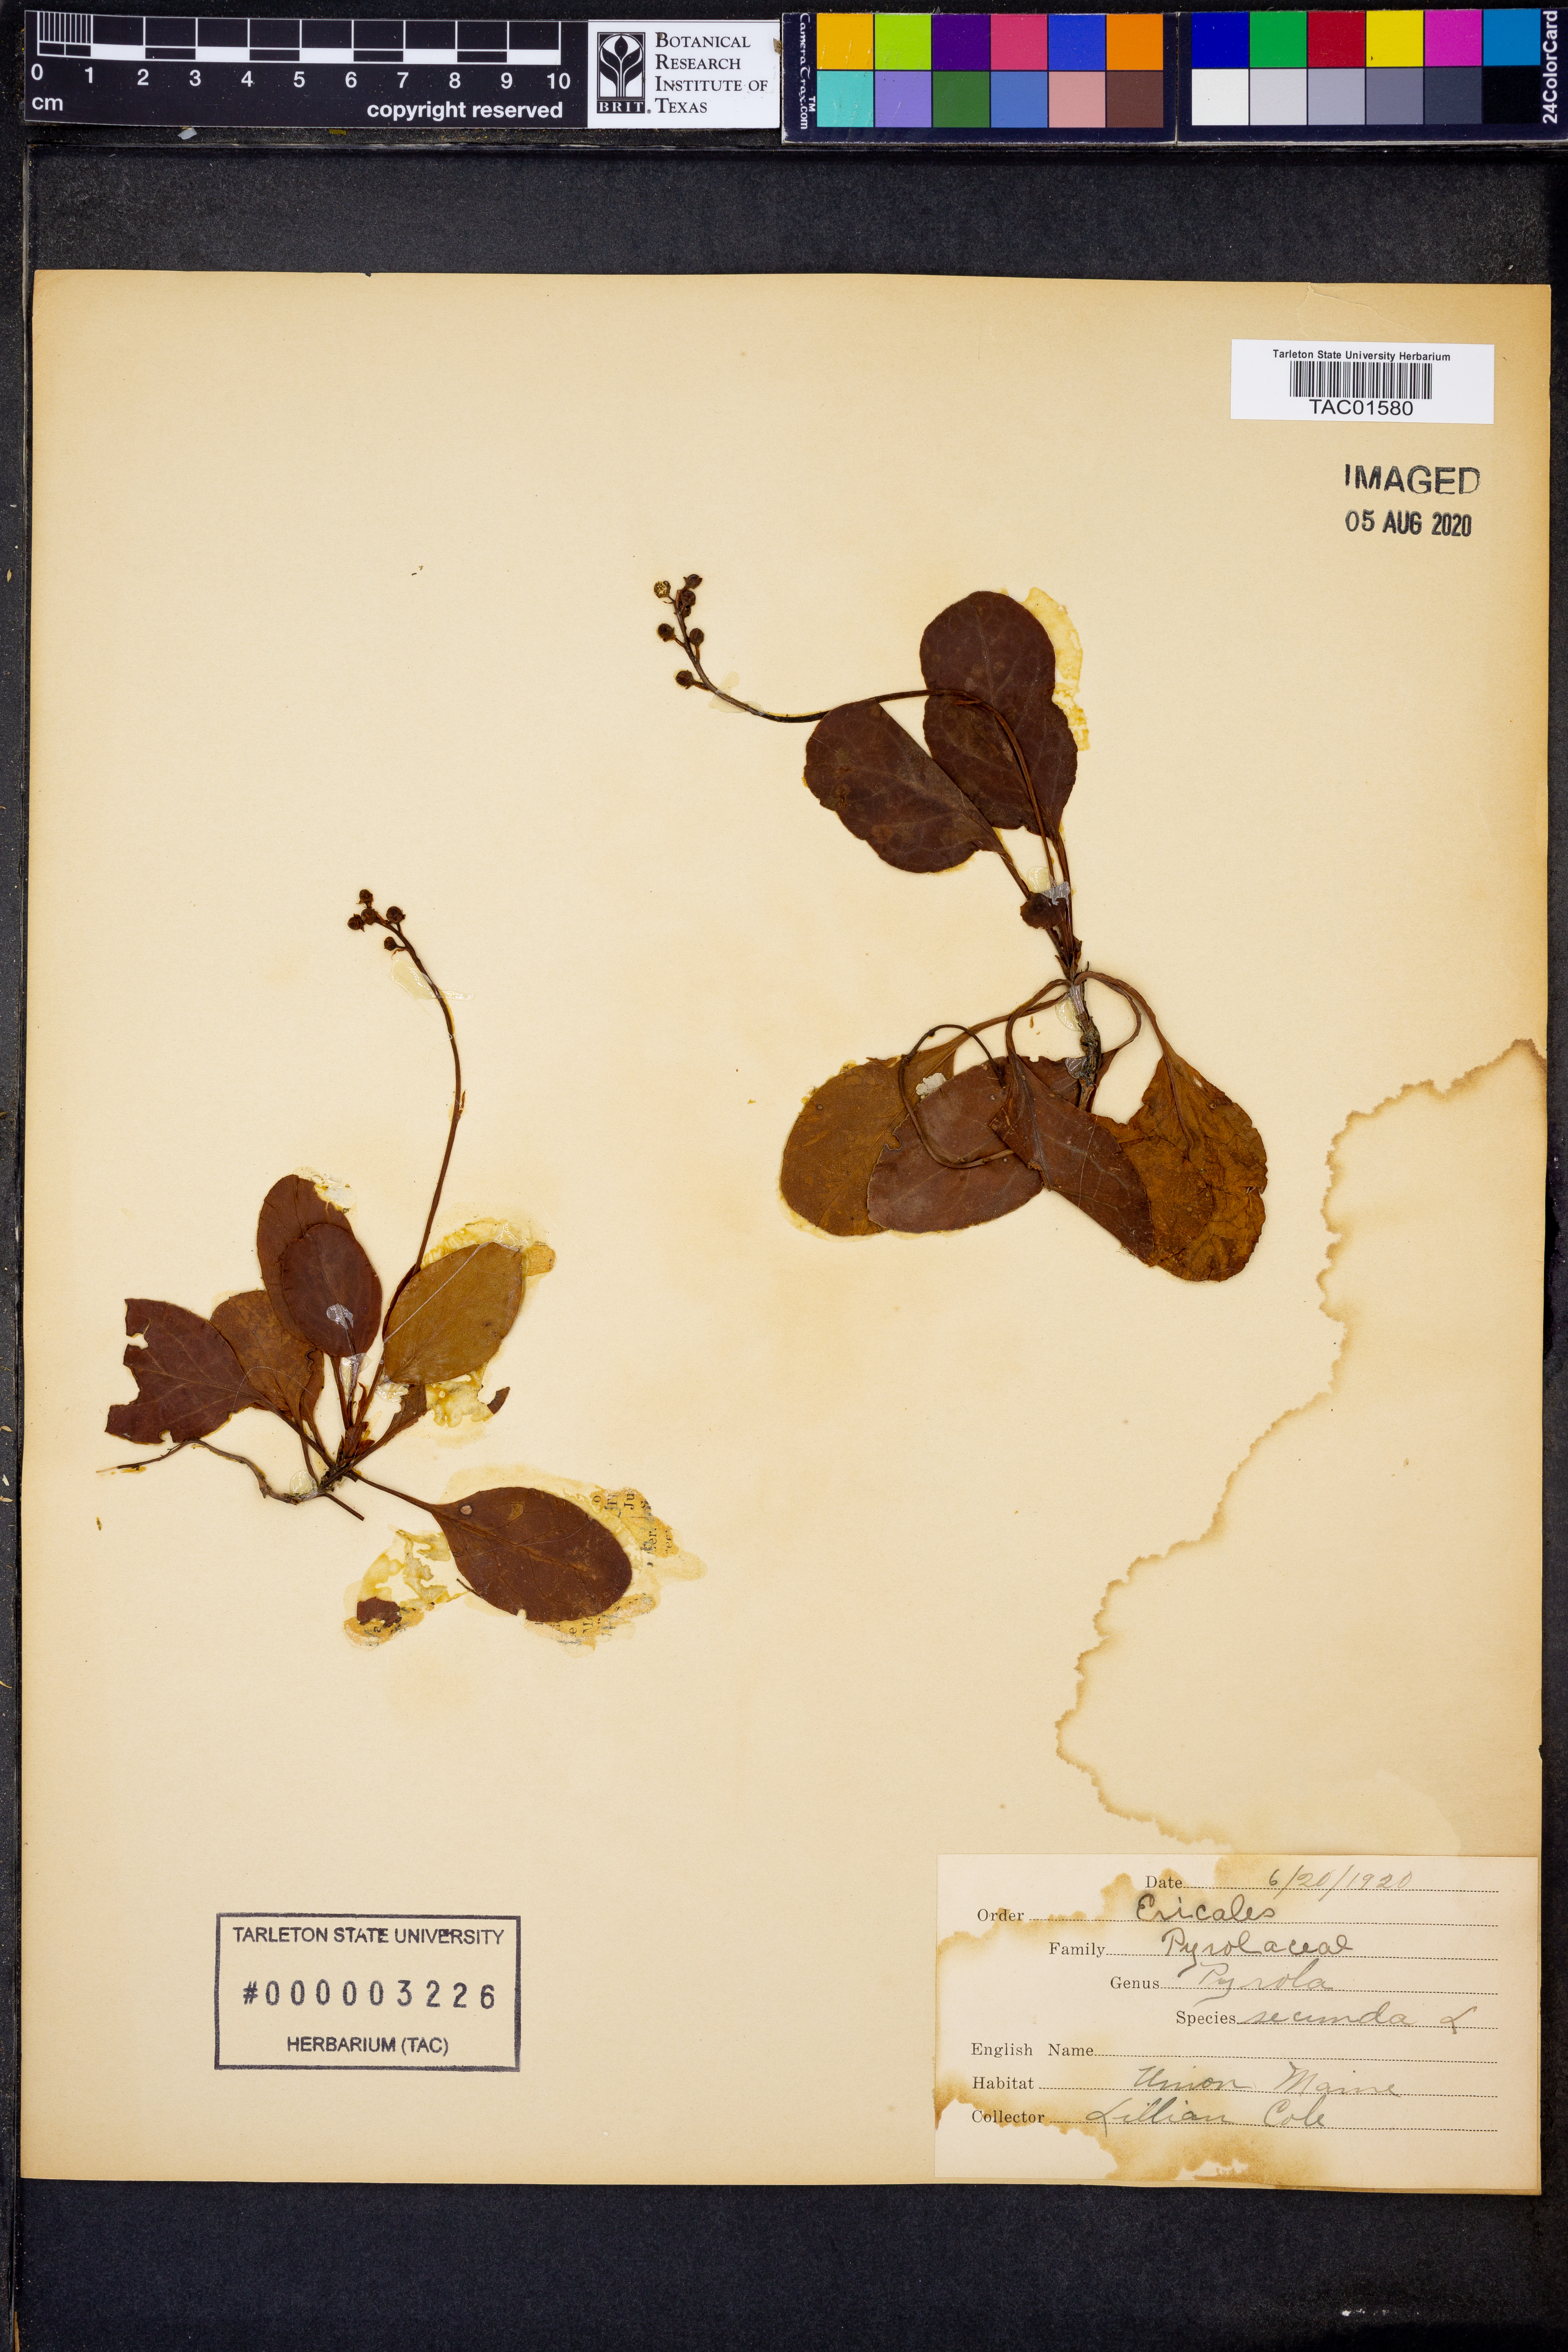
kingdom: Plantae
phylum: Tracheophyta
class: Magnoliopsida
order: Ericales
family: Ericaceae
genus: Orthilia
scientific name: Orthilia secunda
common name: One-sided orthilia
